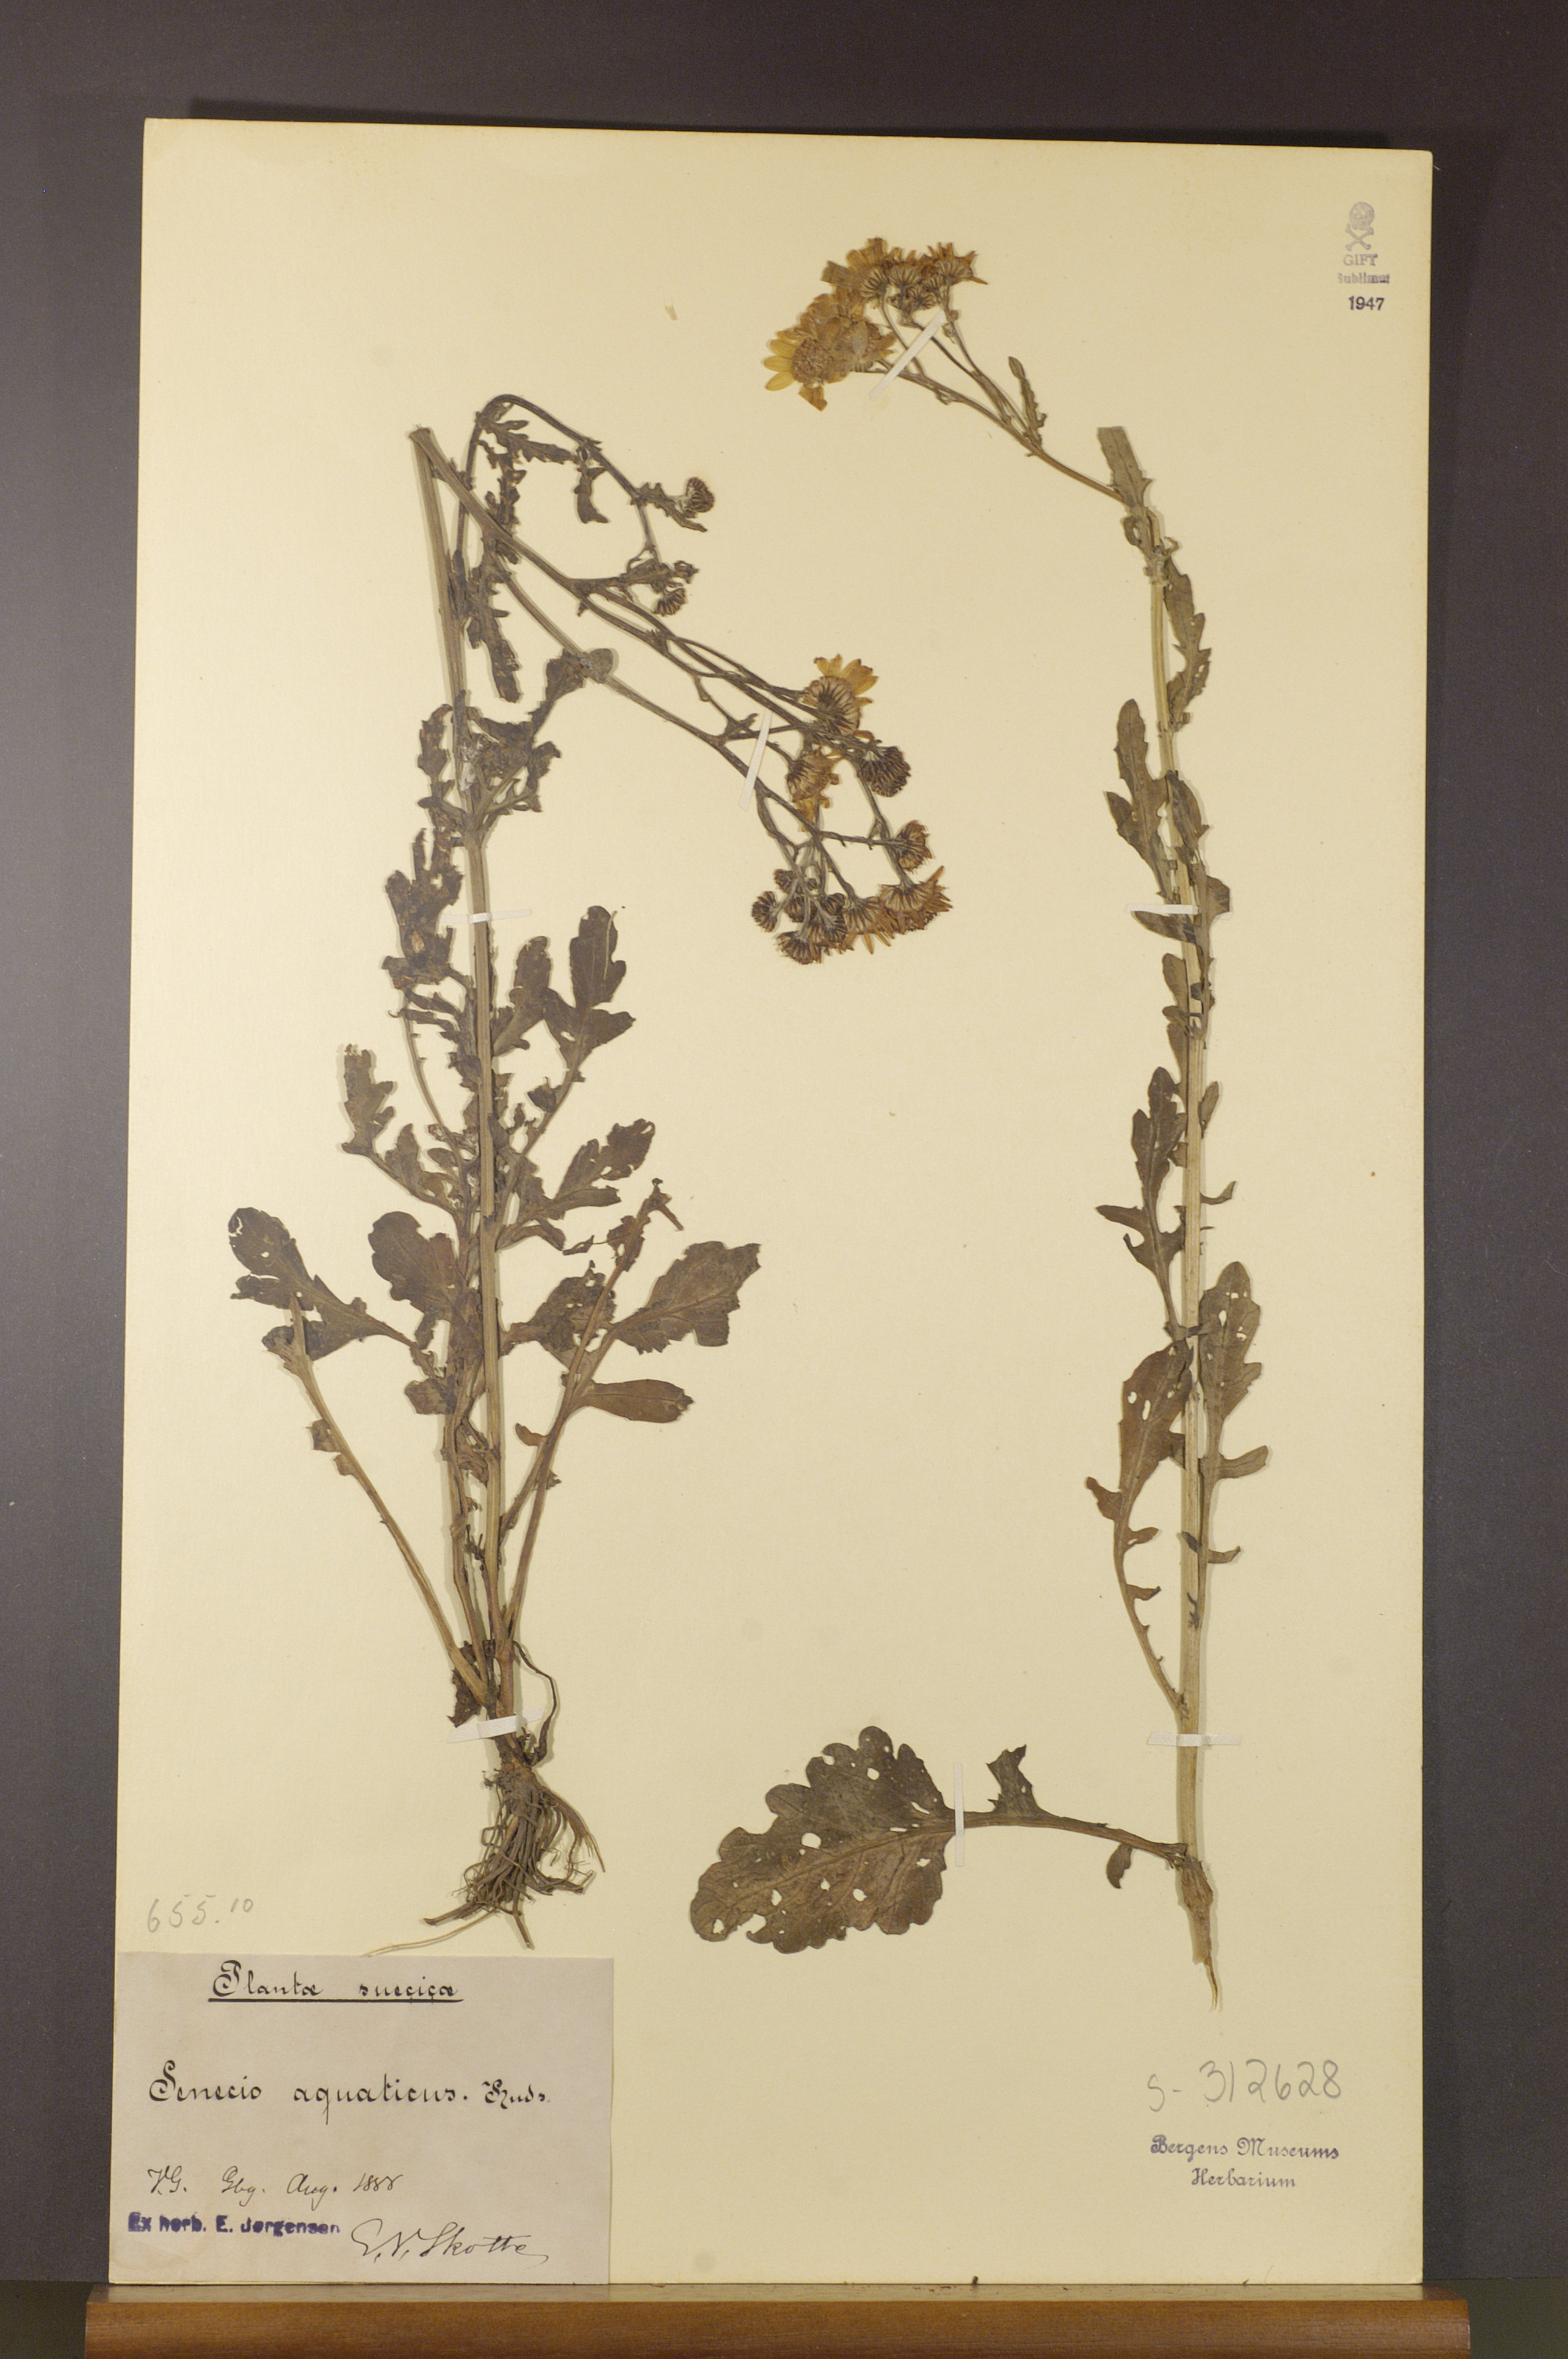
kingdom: Plantae
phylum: Tracheophyta
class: Magnoliopsida
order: Asterales
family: Asteraceae
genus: Jacobaea
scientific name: Jacobaea aquatica
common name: Water ragwort
